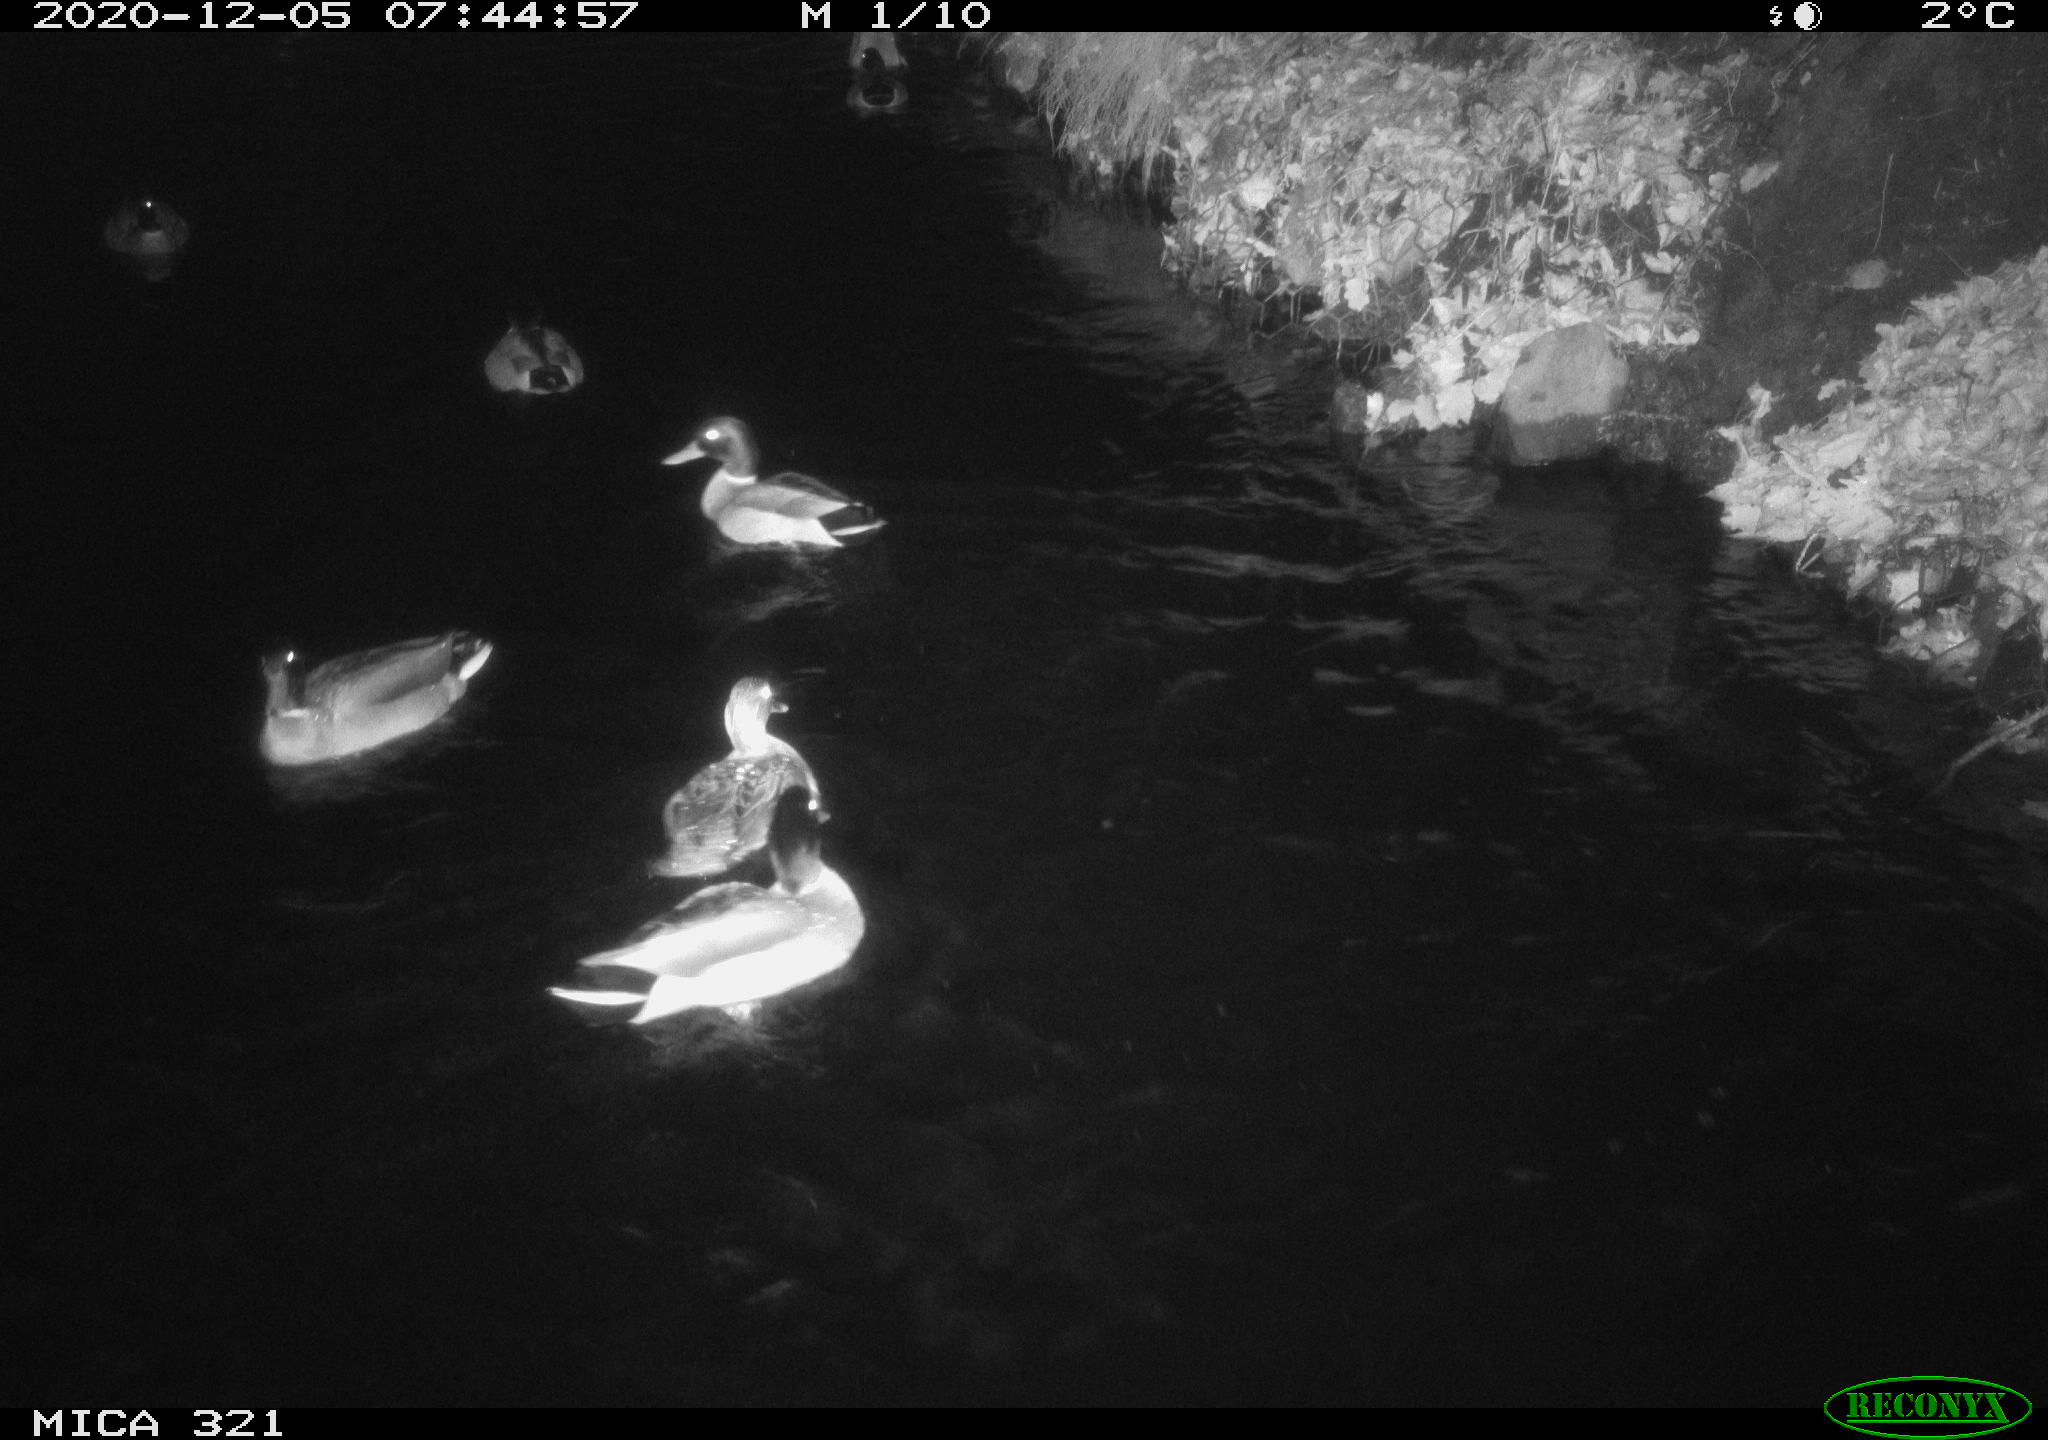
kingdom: Animalia
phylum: Chordata
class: Aves
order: Anseriformes
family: Anatidae
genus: Anas
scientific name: Anas platyrhynchos
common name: Mallard
